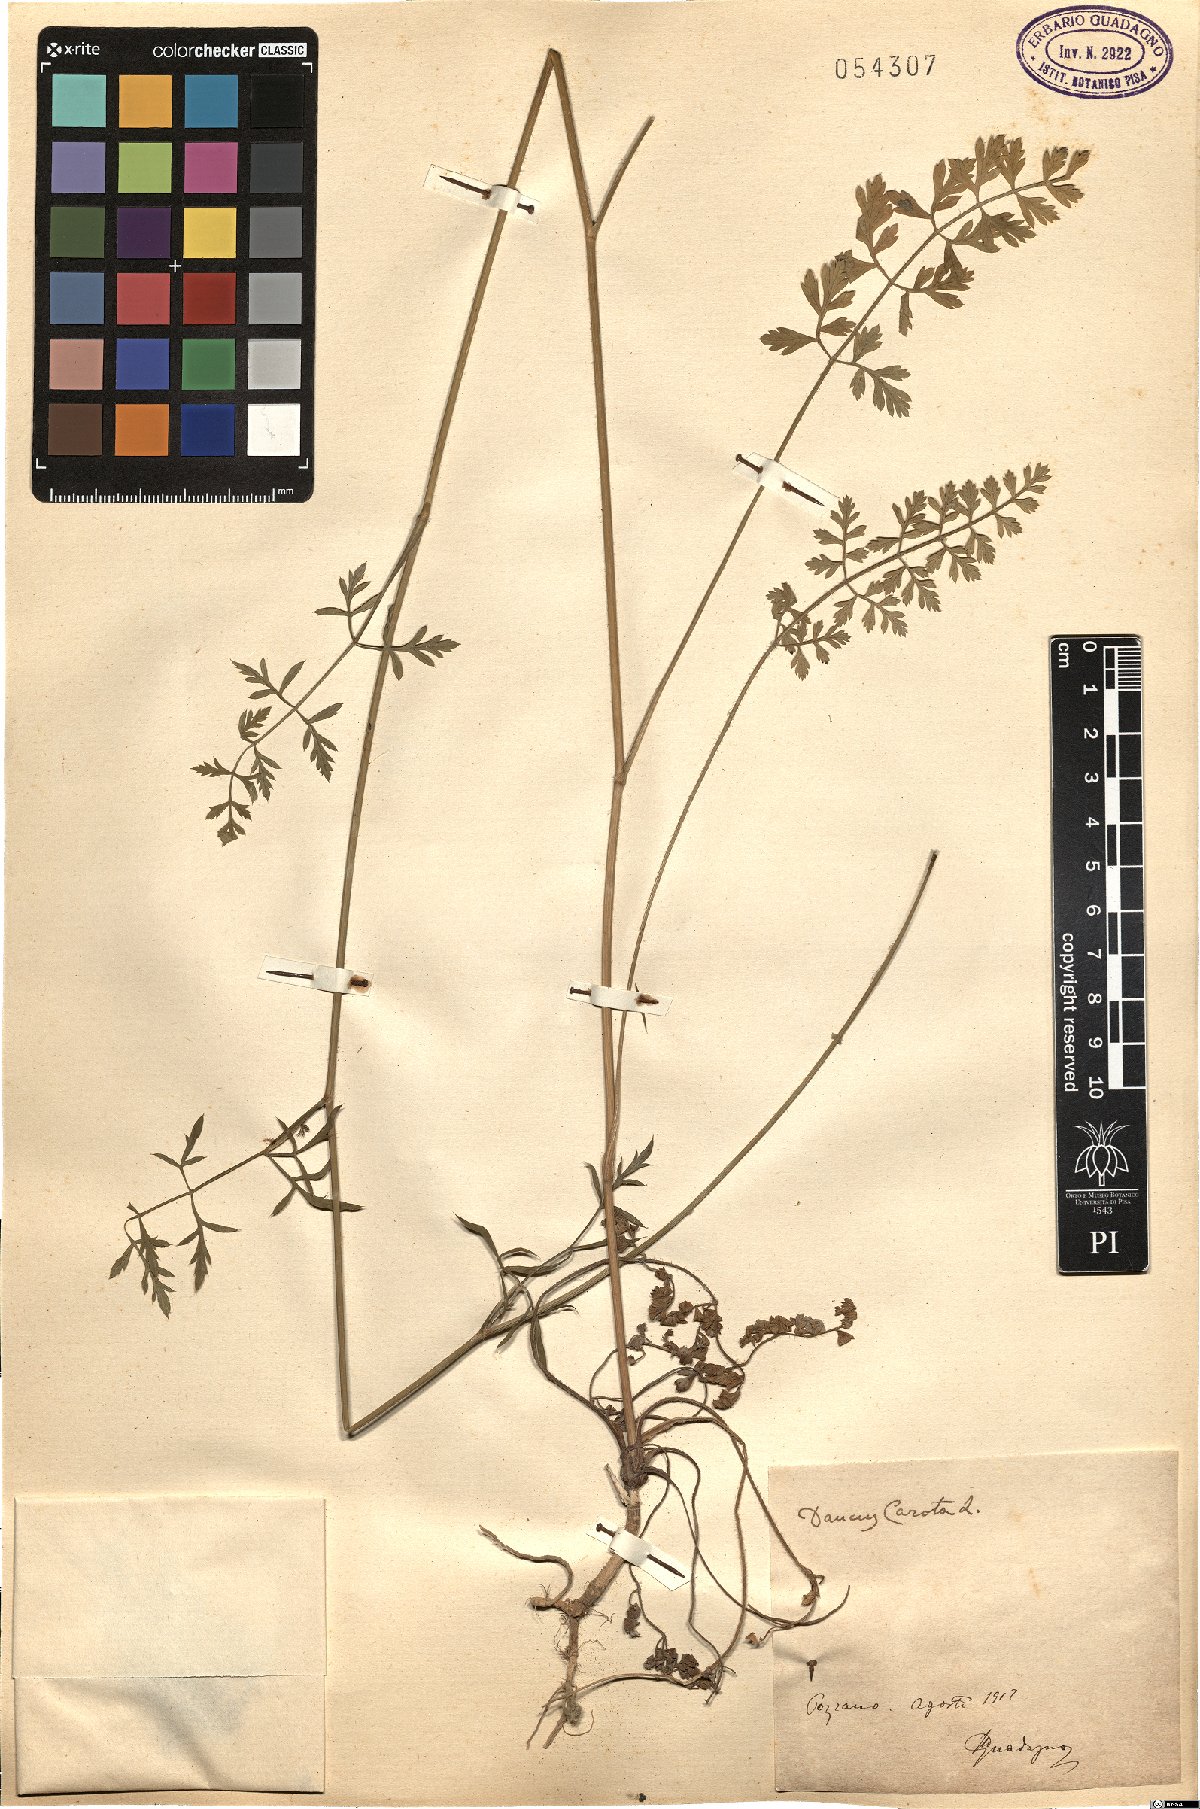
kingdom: Plantae
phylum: Tracheophyta
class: Magnoliopsida
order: Apiales
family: Apiaceae
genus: Daucus
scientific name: Daucus carota
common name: Wild carrot
